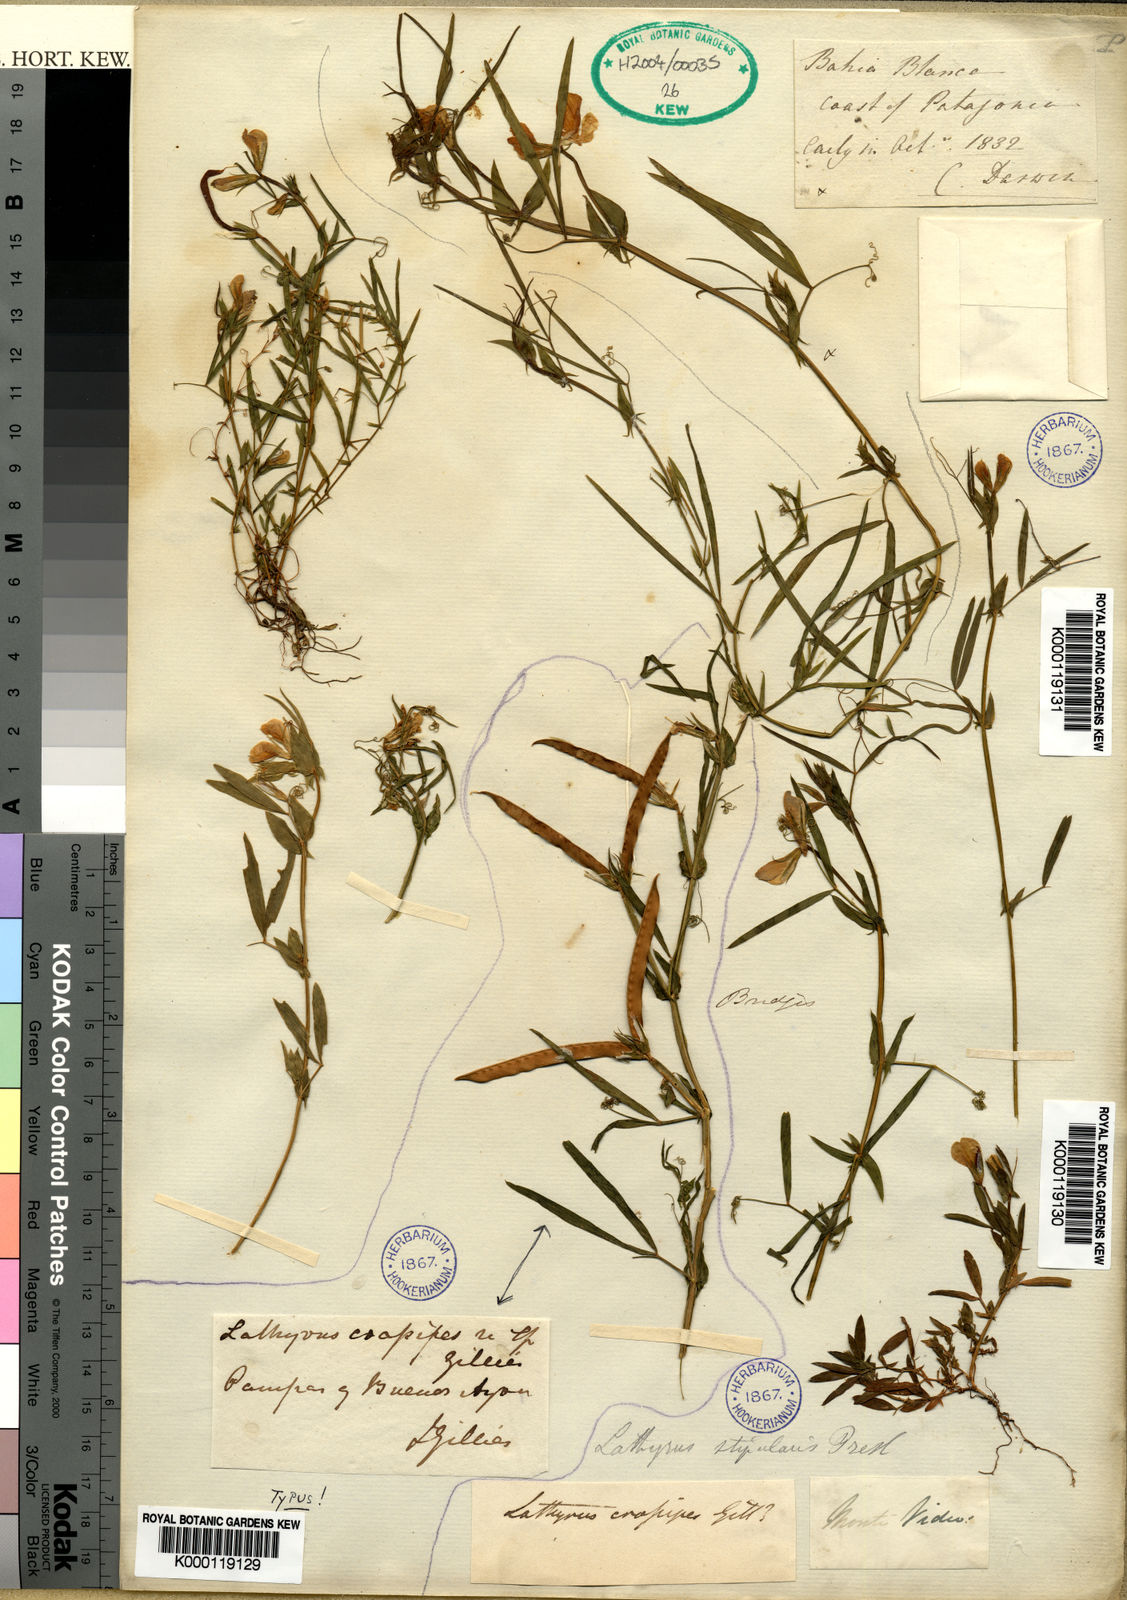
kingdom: Plantae
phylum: Tracheophyta
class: Magnoliopsida
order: Fabales
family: Fabaceae
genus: Lathyrus
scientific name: Lathyrus
